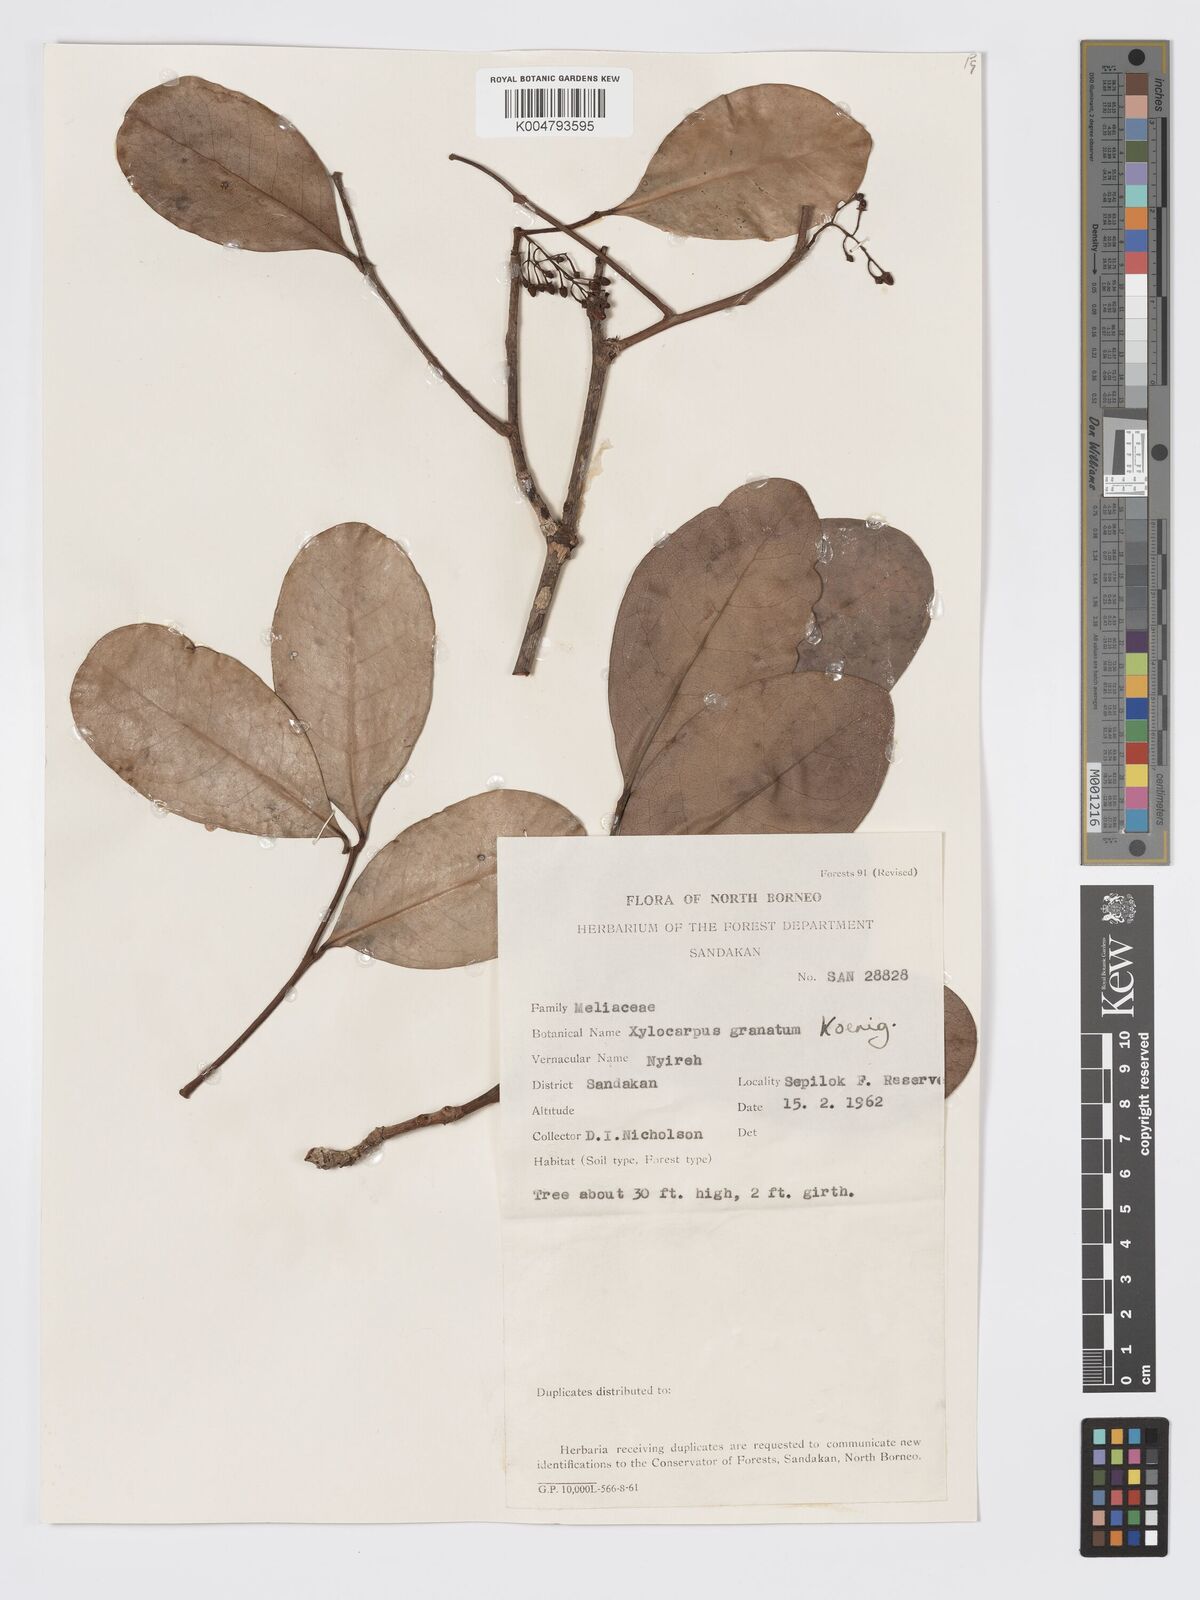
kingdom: Plantae
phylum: Tracheophyta
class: Magnoliopsida
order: Sapindales
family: Meliaceae
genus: Xylocarpus
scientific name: Xylocarpus granatum
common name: Apple mangrove
